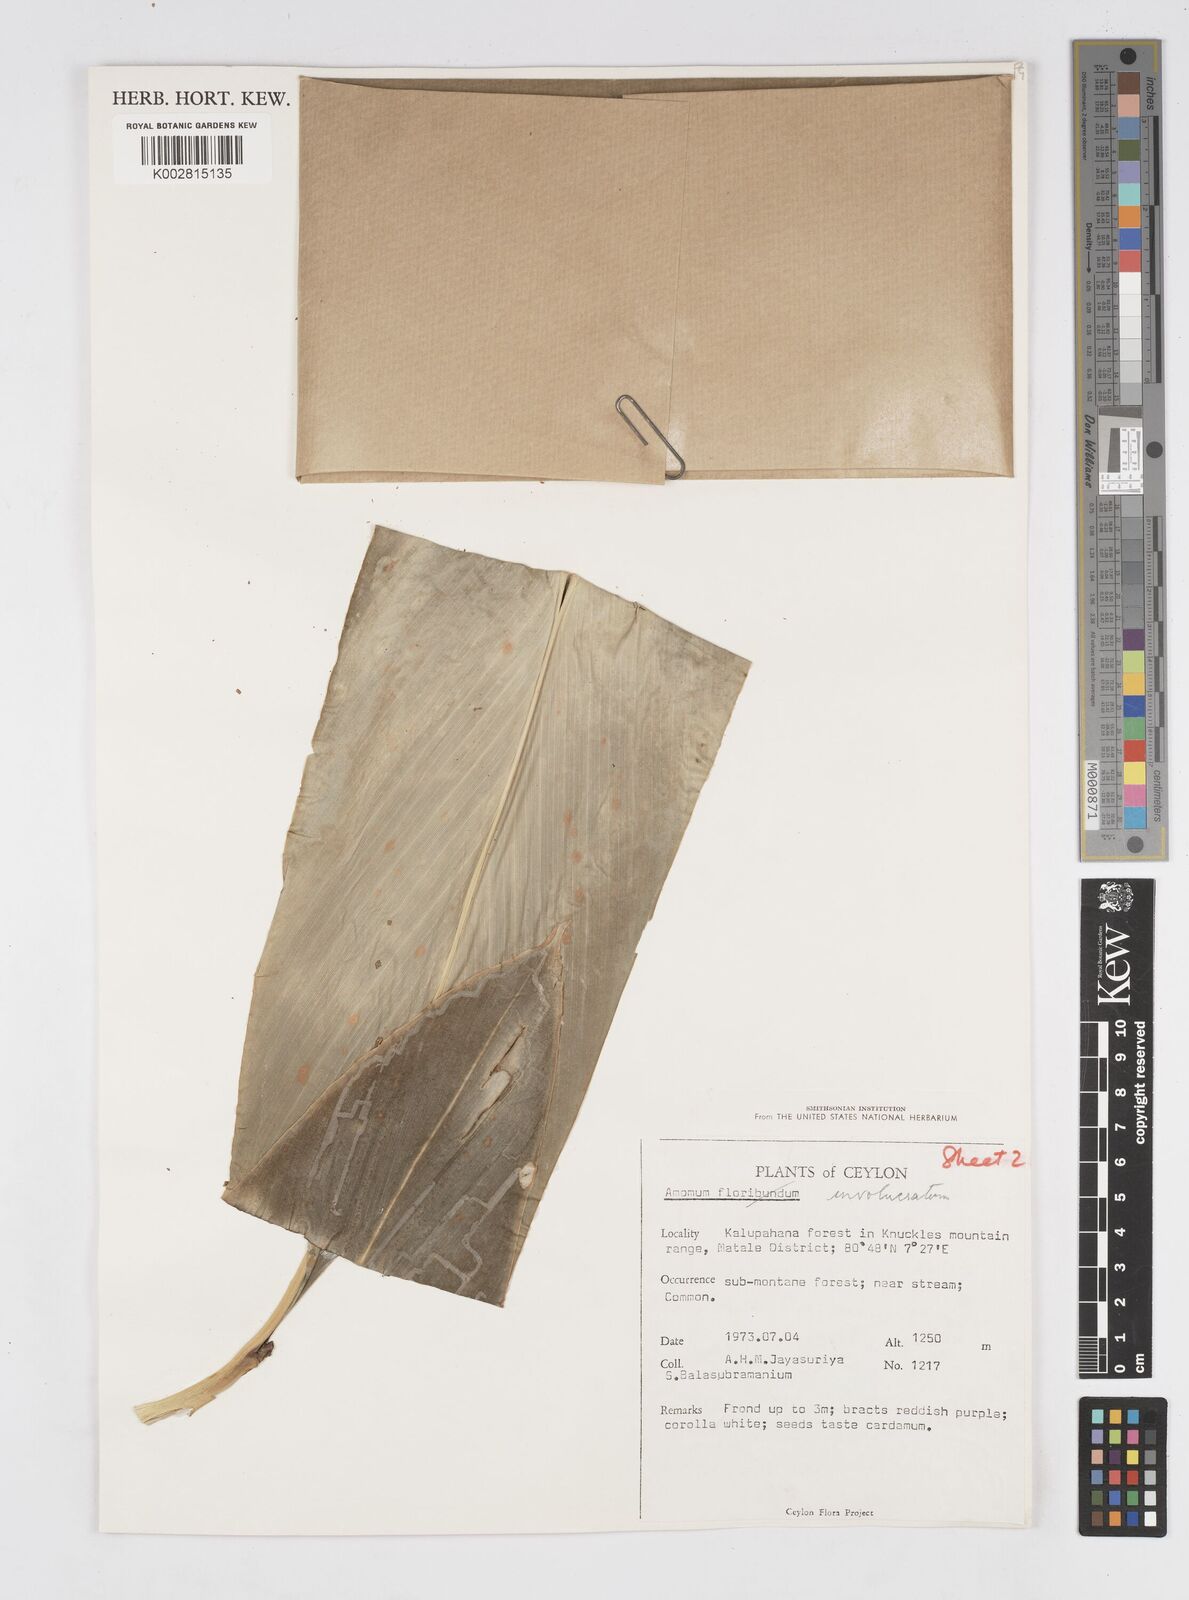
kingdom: Plantae
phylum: Tracheophyta
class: Liliopsida
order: Zingiberales
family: Zingiberaceae
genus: Alpinia
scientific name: Alpinia fax
